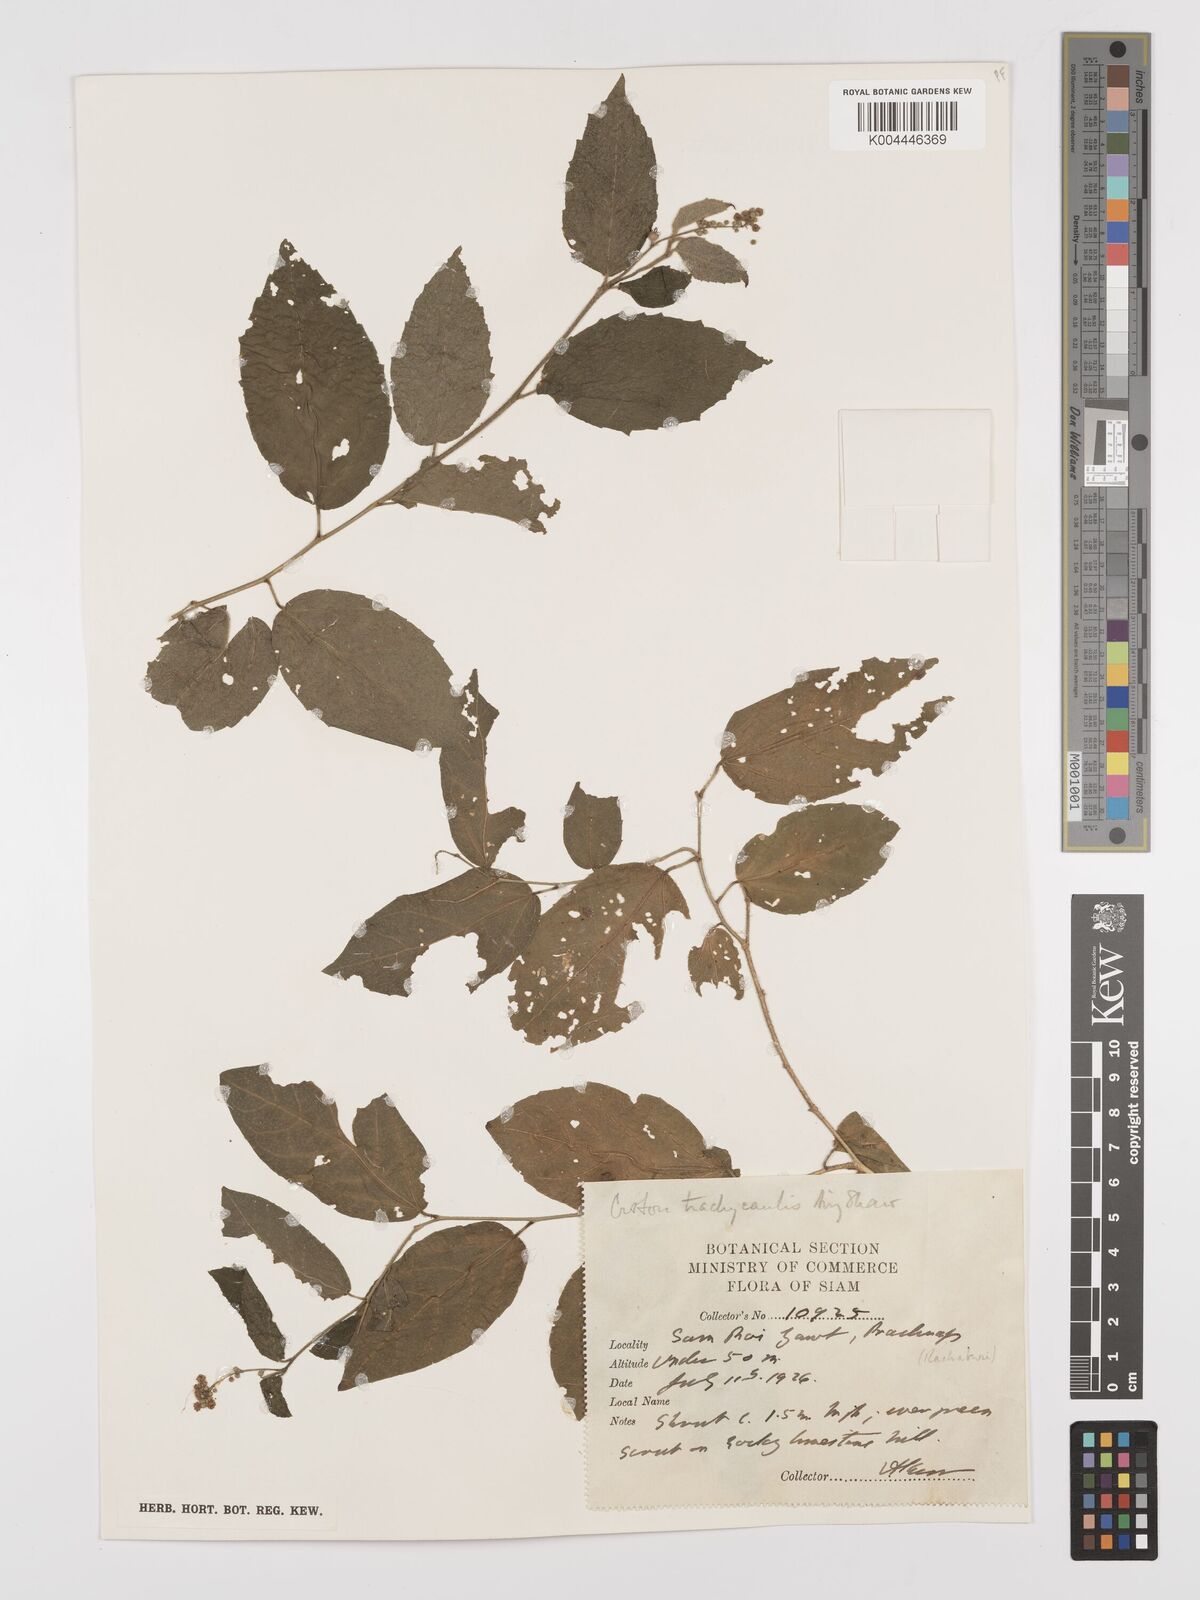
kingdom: Plantae
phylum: Tracheophyta
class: Magnoliopsida
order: Malpighiales
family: Euphorbiaceae
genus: Croton
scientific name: Croton lachnocarpus
